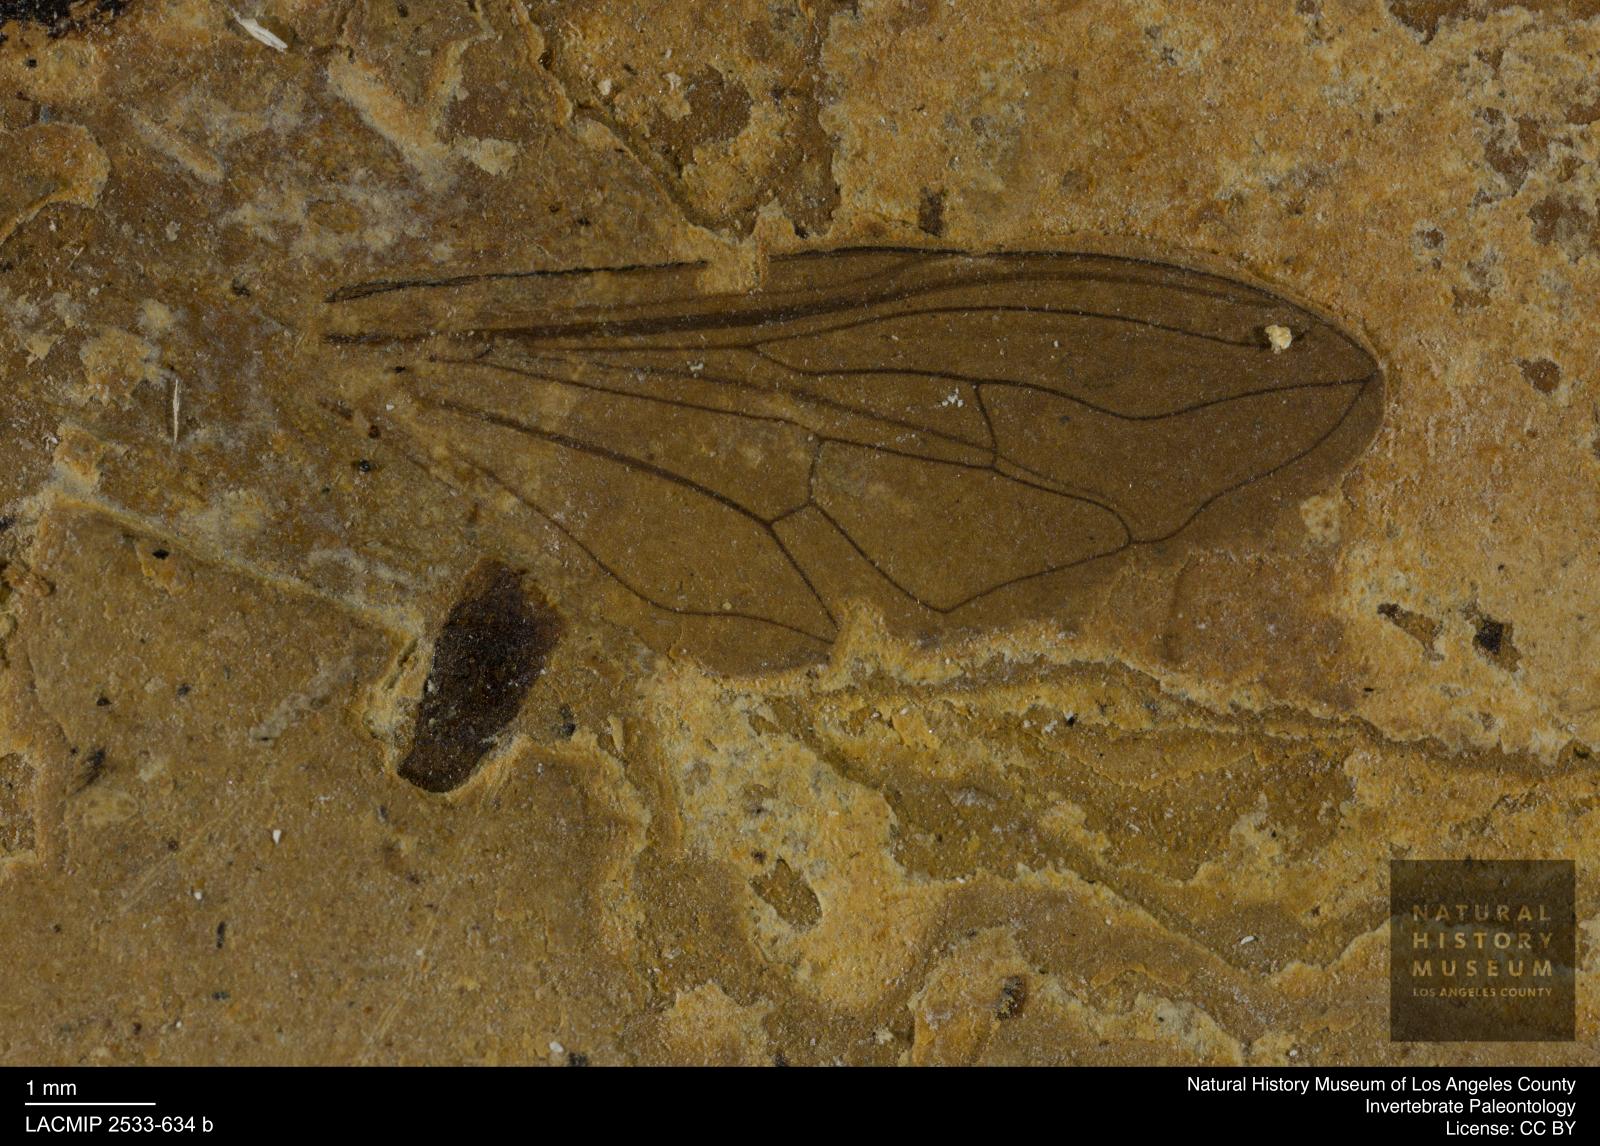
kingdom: Animalia
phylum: Arthropoda
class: Insecta
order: Diptera
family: Syrphidae
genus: Tropidia
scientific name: Tropidia
